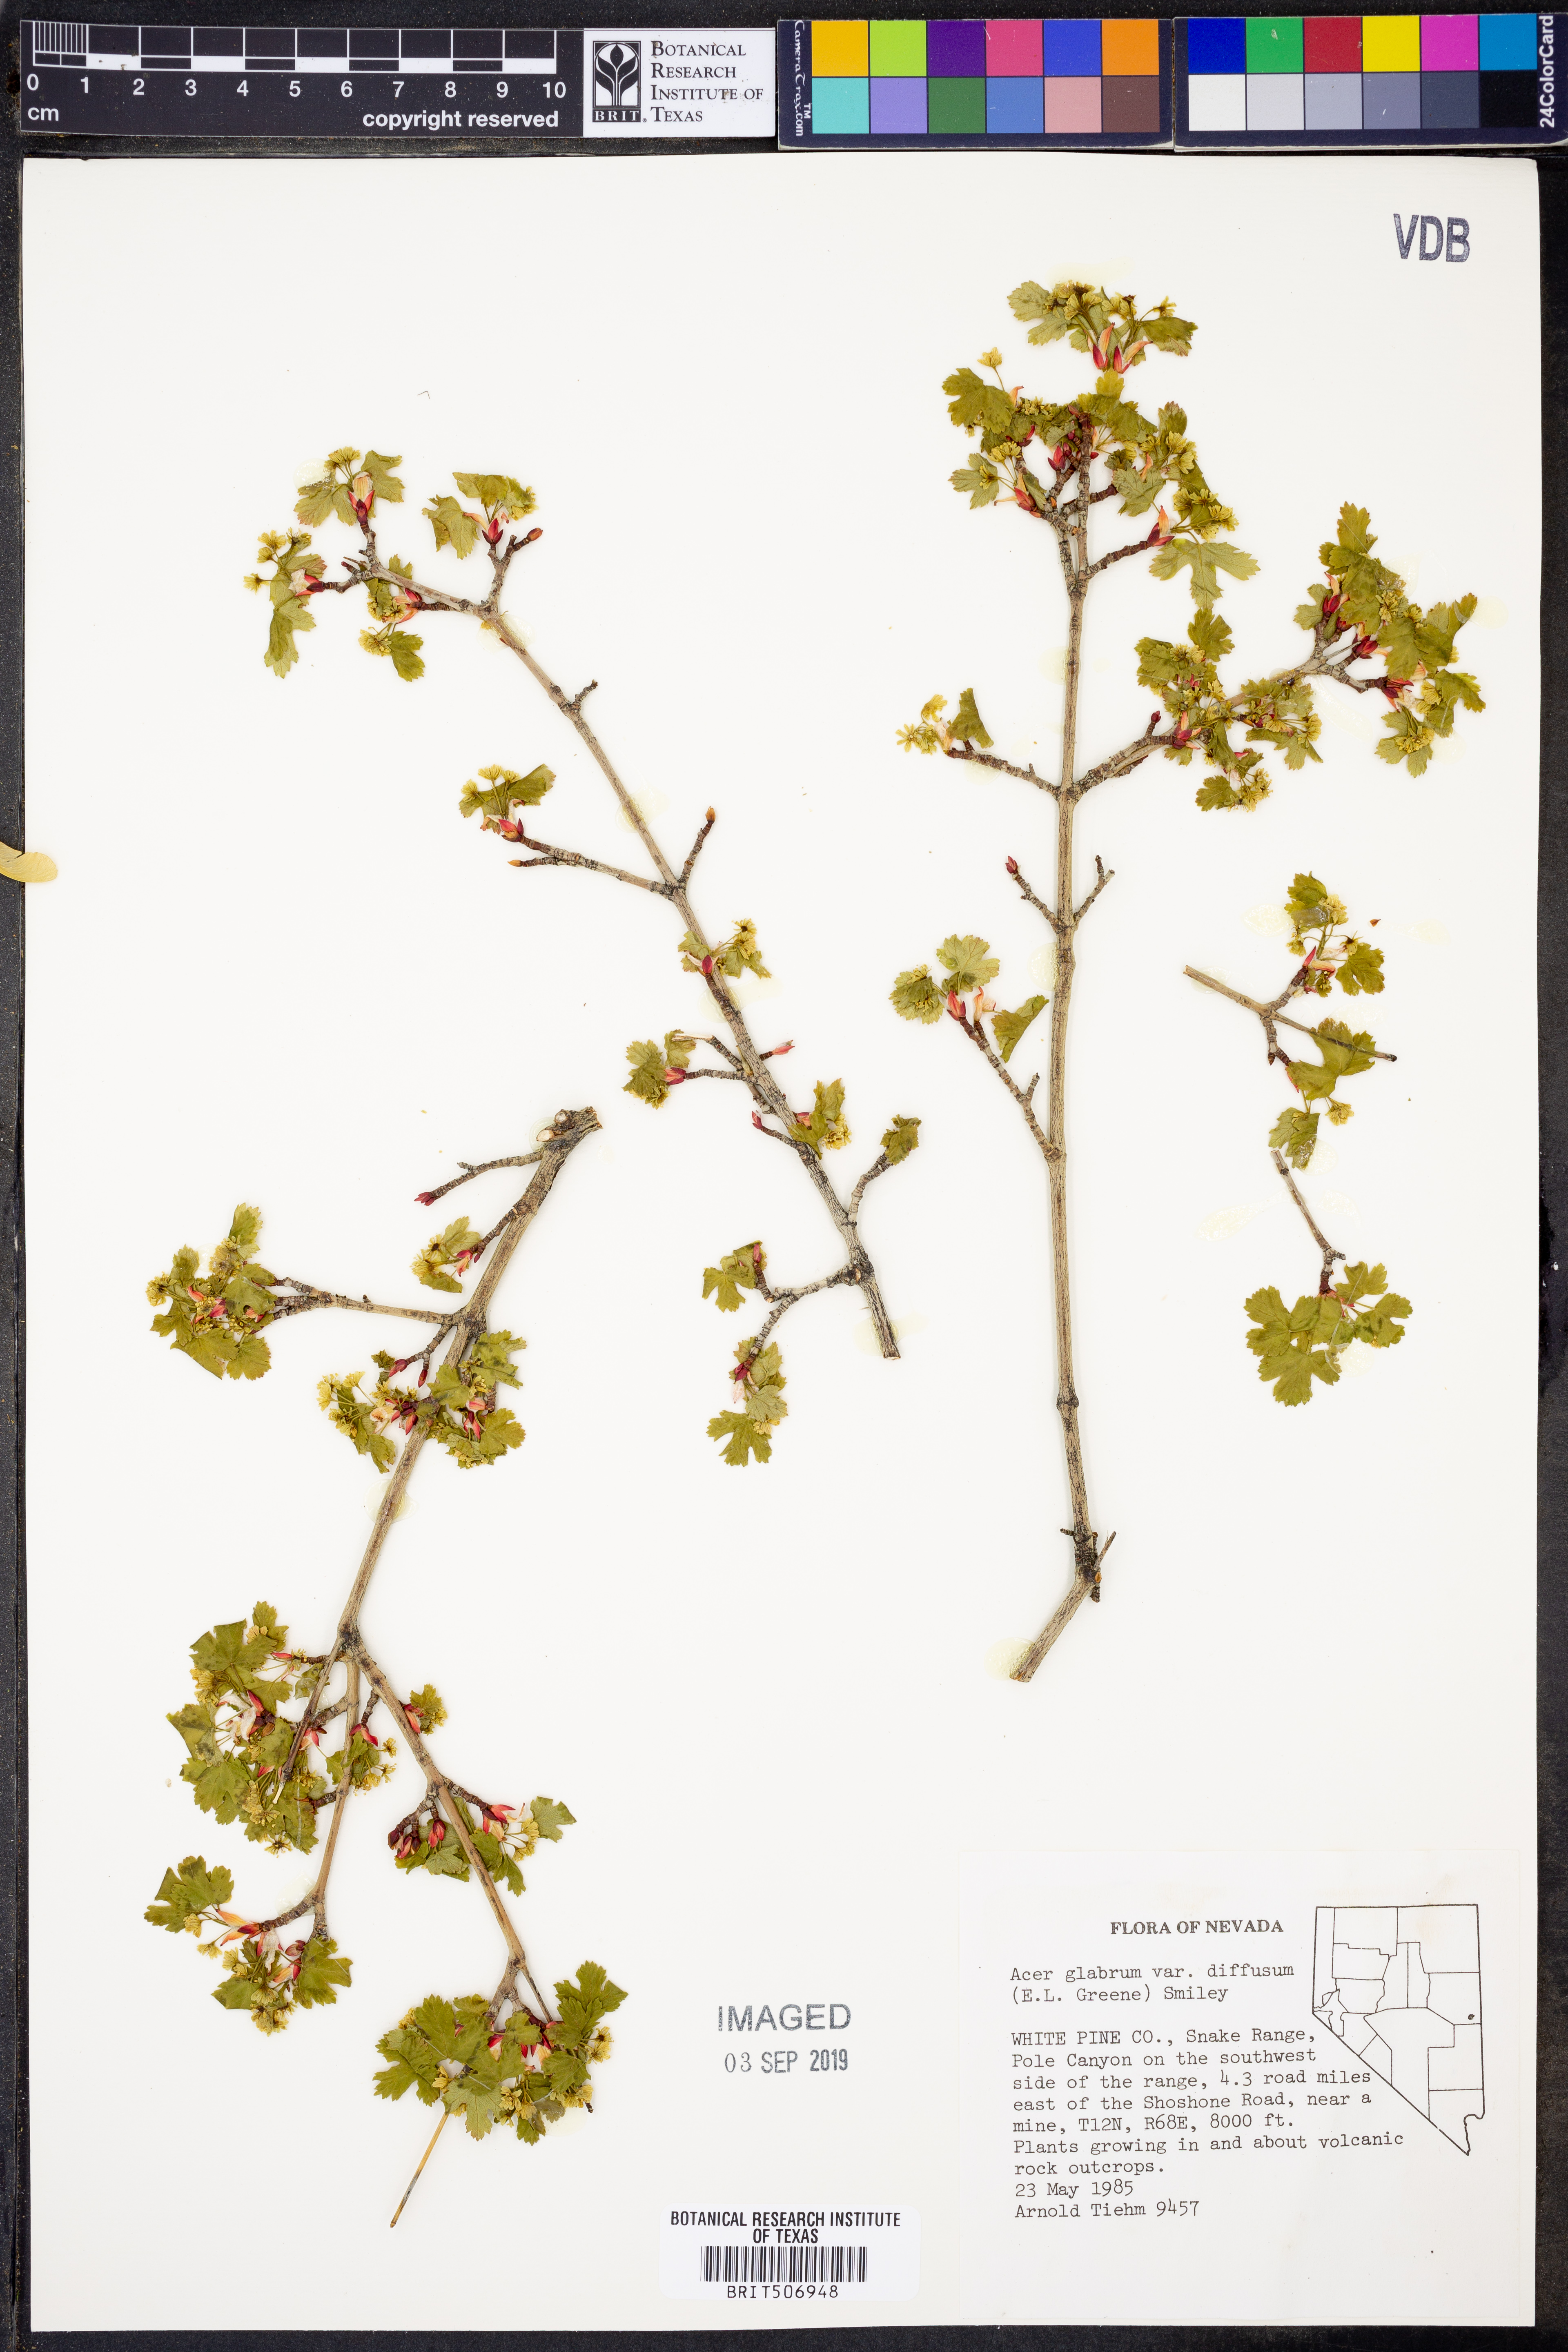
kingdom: Plantae
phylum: Tracheophyta
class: Magnoliopsida
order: Sapindales
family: Sapindaceae
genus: Acer
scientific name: Acer glabrum
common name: Rocky mountain maple
